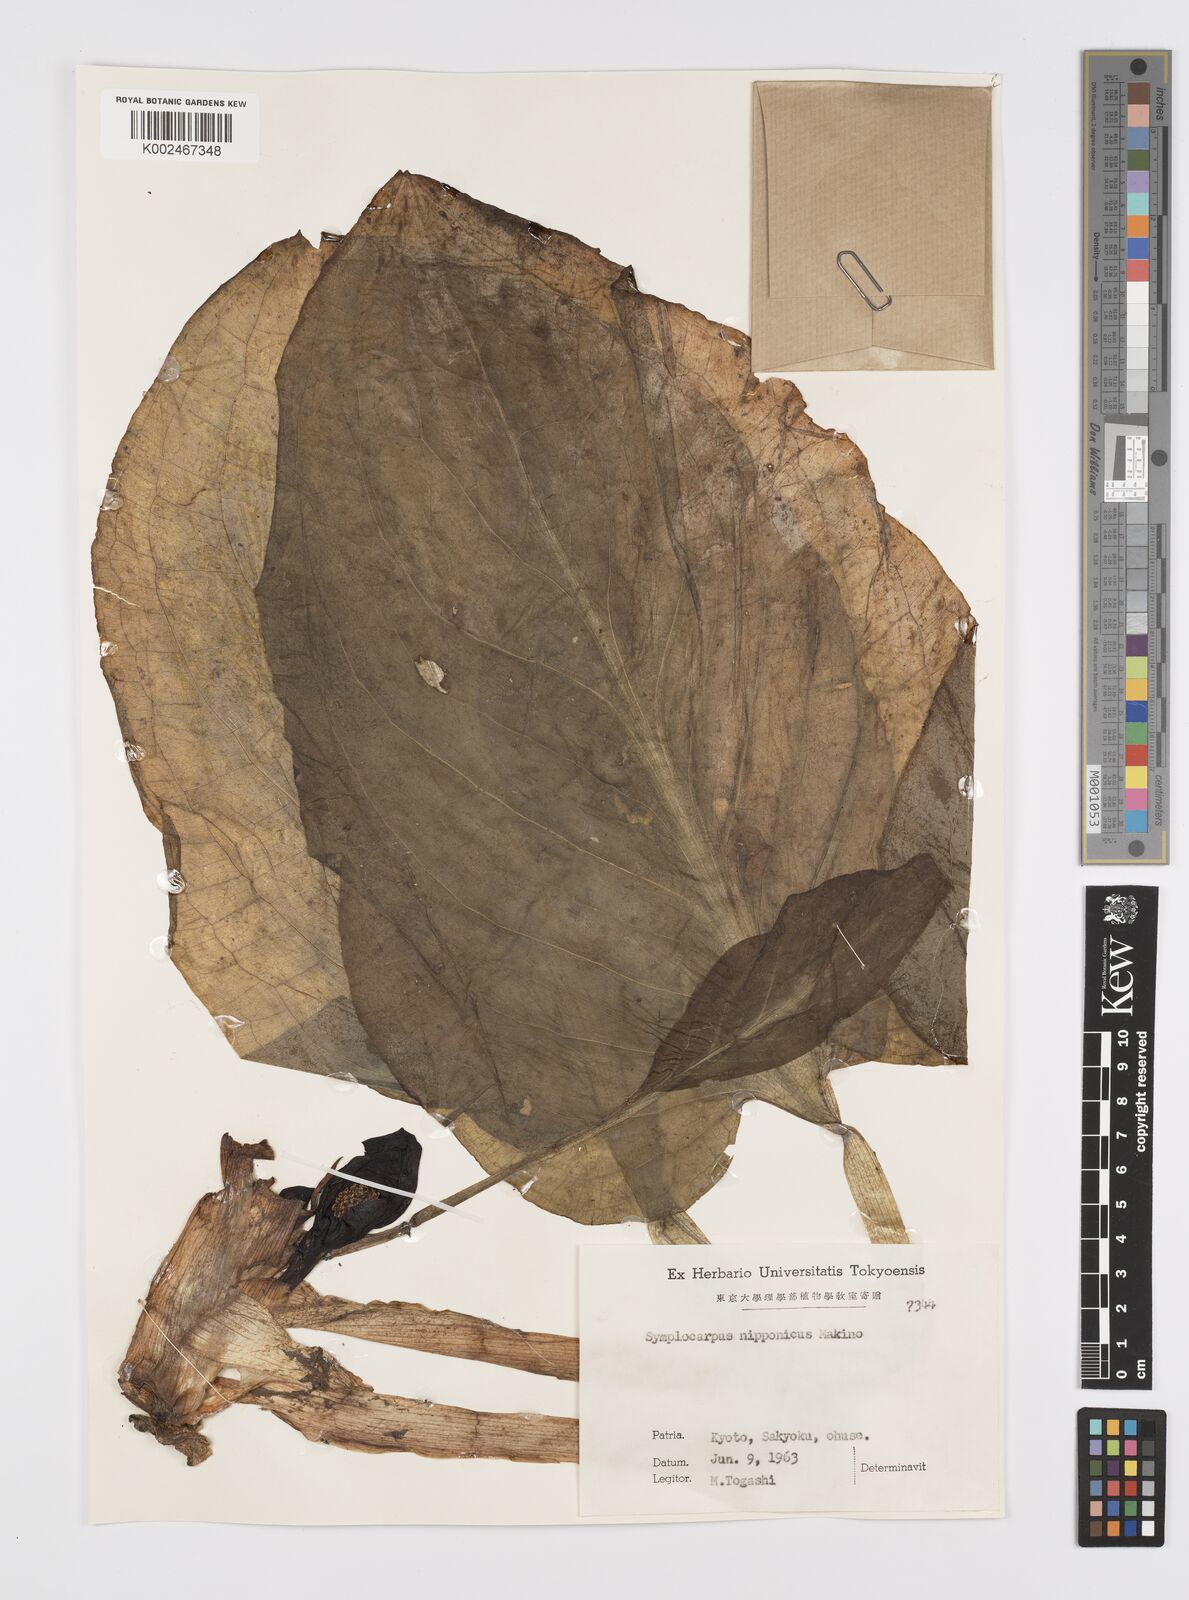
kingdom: Plantae
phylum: Tracheophyta
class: Liliopsida
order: Alismatales
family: Araceae
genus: Symplocarpus
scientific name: Symplocarpus nipponicus
